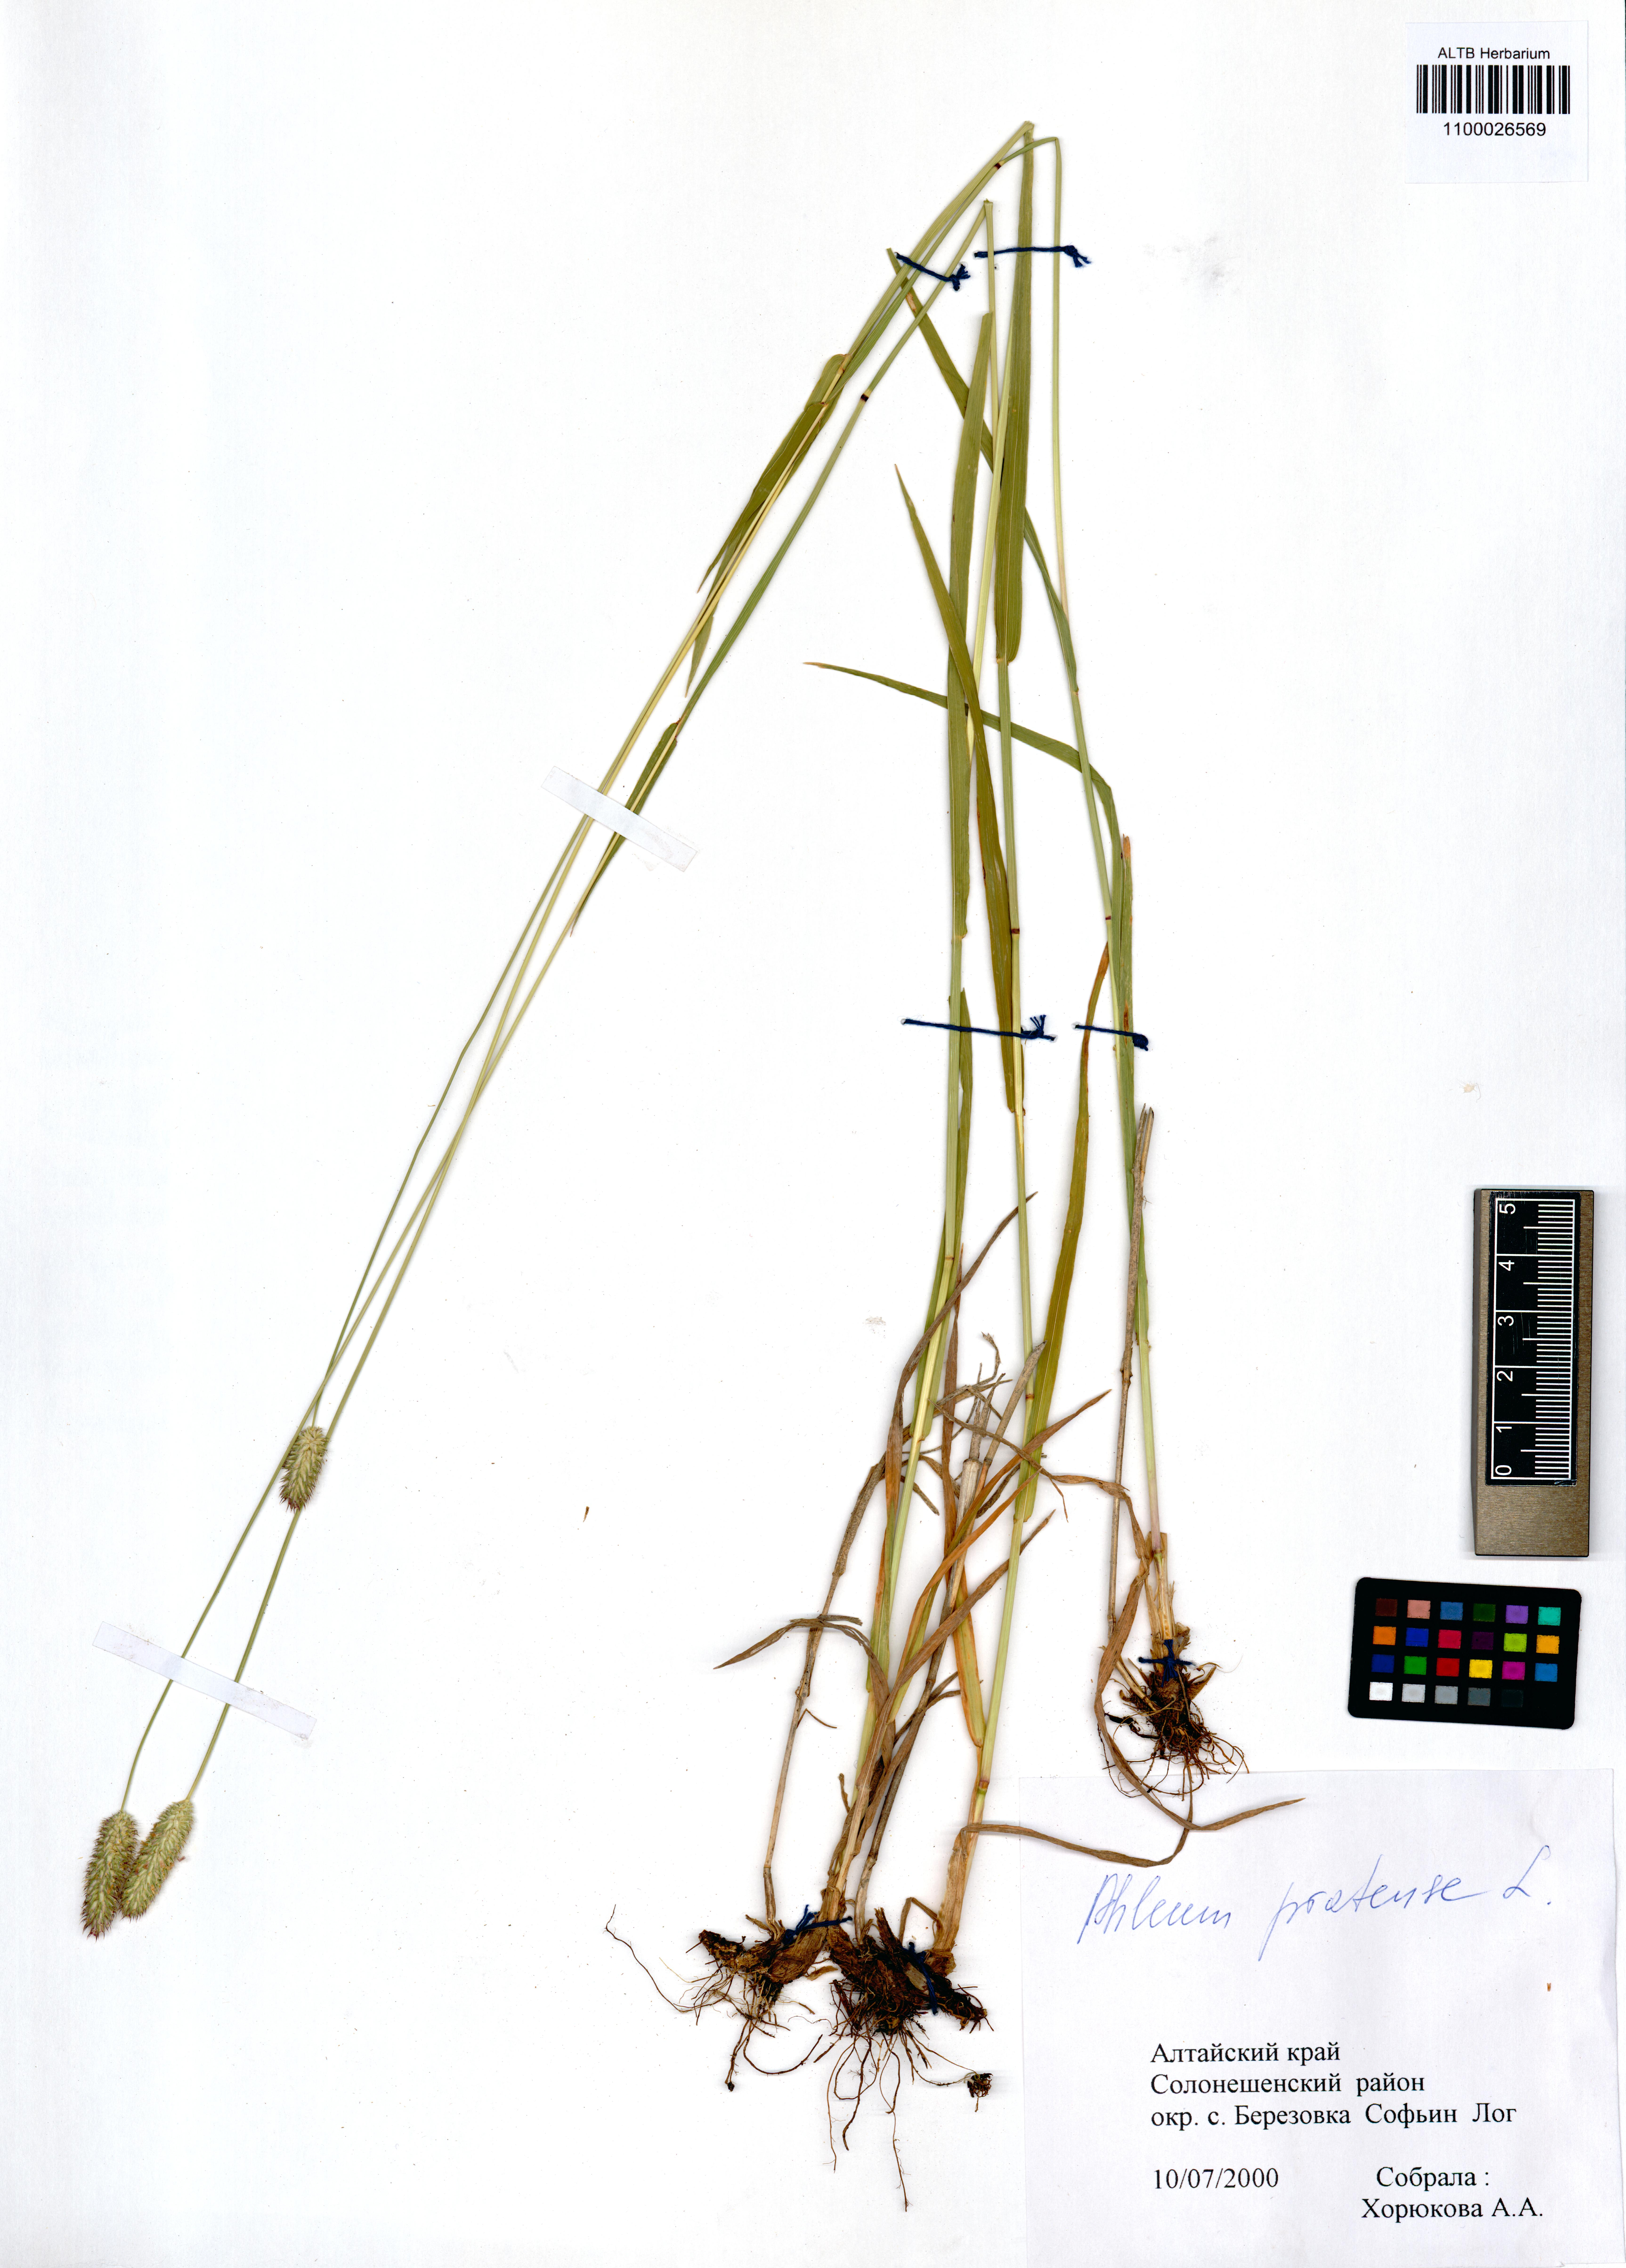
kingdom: Plantae
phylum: Tracheophyta
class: Liliopsida
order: Poales
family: Poaceae
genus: Phleum
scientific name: Phleum pratense
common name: Timothy grass
